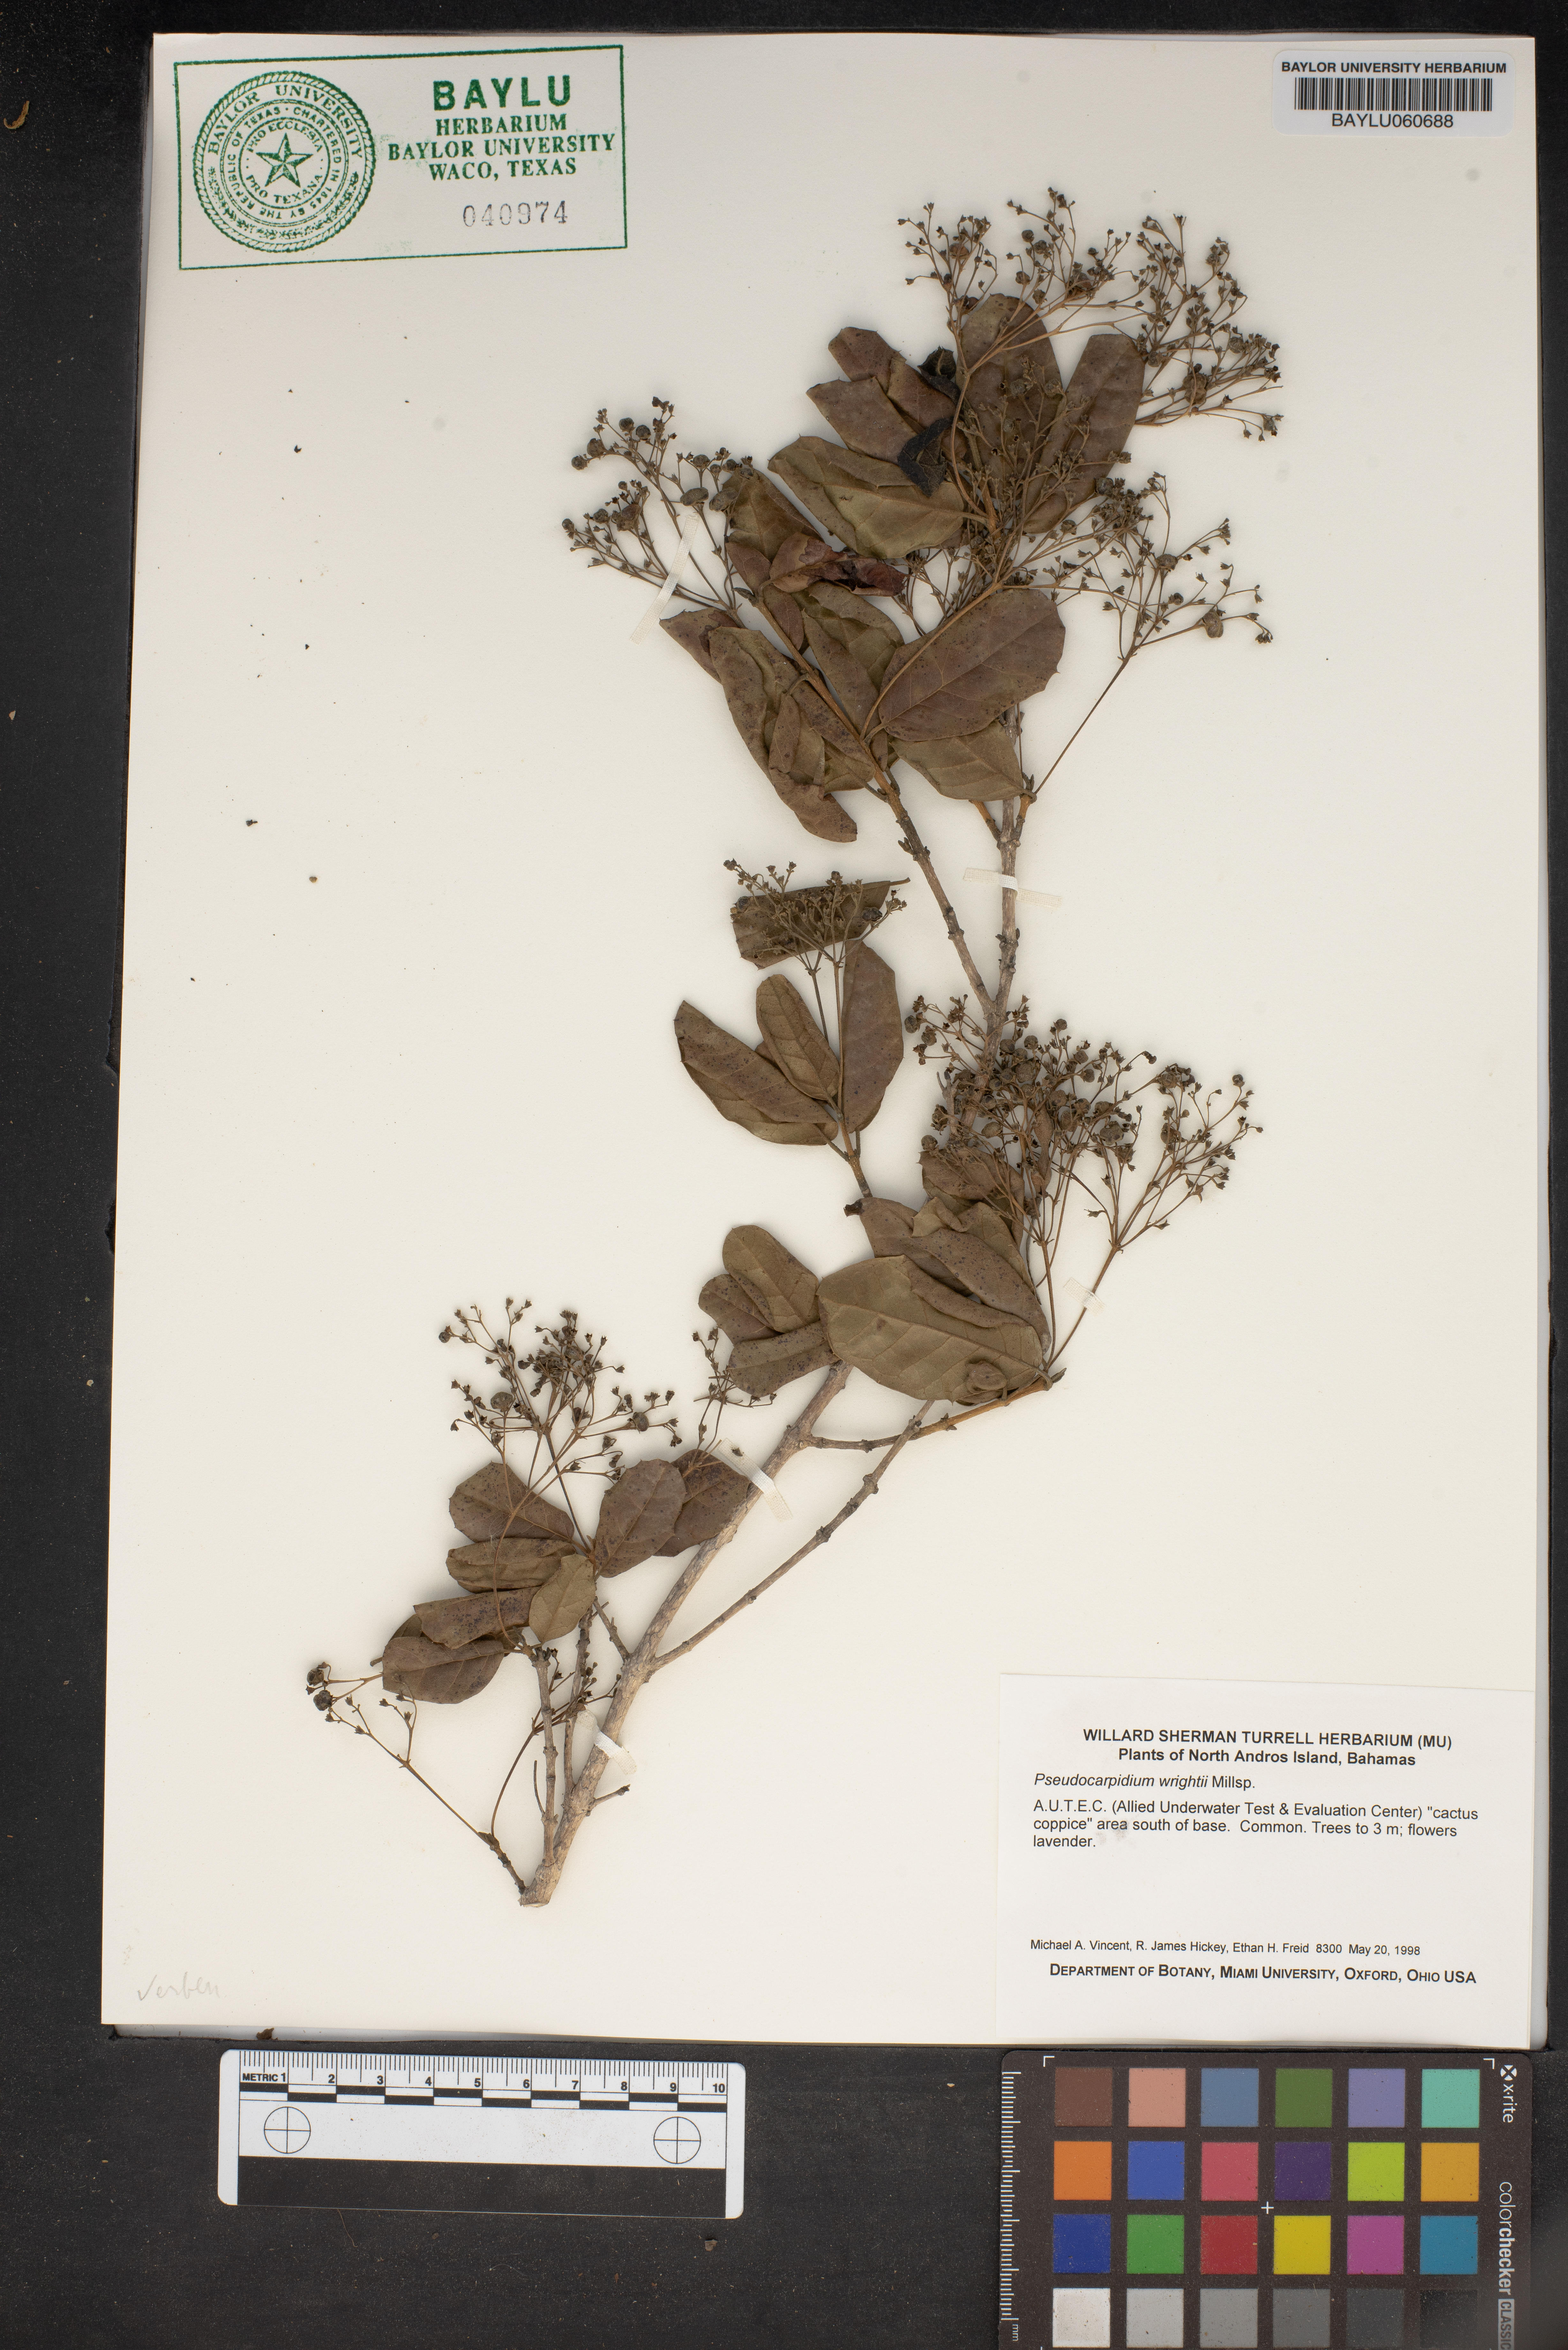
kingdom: Plantae
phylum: Tracheophyta
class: Magnoliopsida
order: Lamiales
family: Lamiaceae
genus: Pseudocarpidium
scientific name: Pseudocarpidium wrightii
